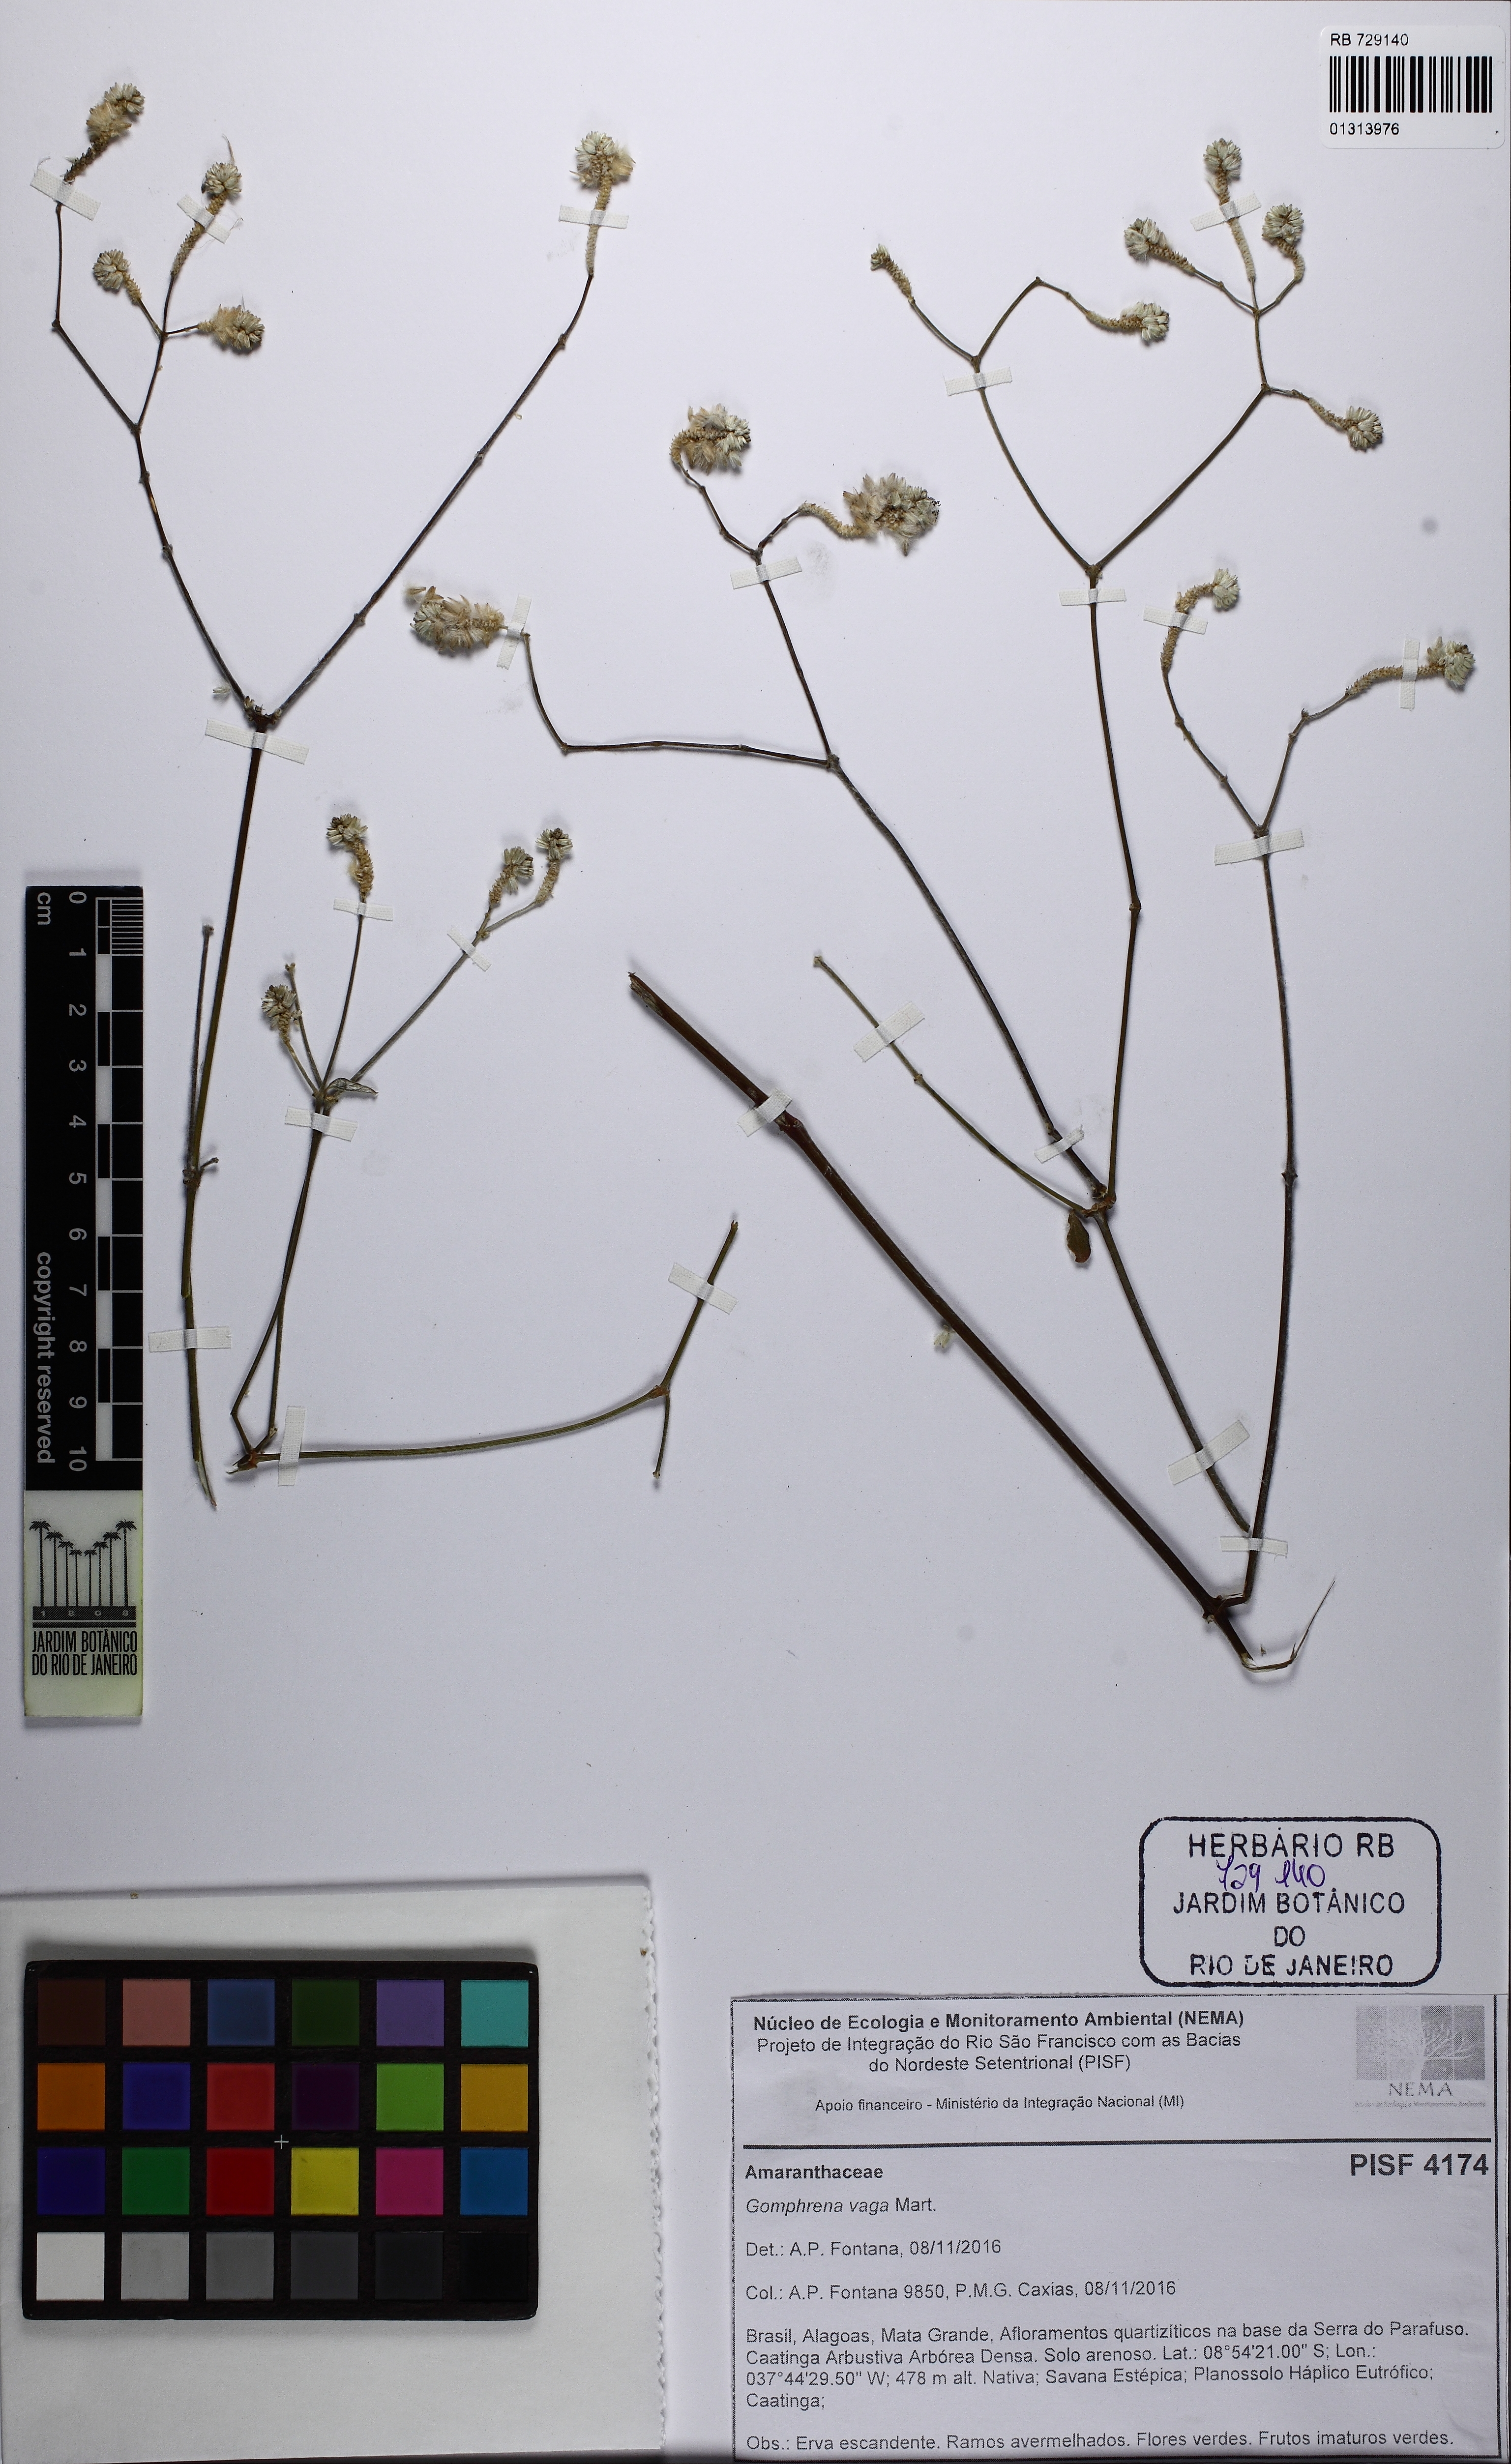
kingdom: Plantae
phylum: Tracheophyta
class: Magnoliopsida
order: Caryophyllales
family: Amaranthaceae
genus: Gomphrena
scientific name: Gomphrena vaga
